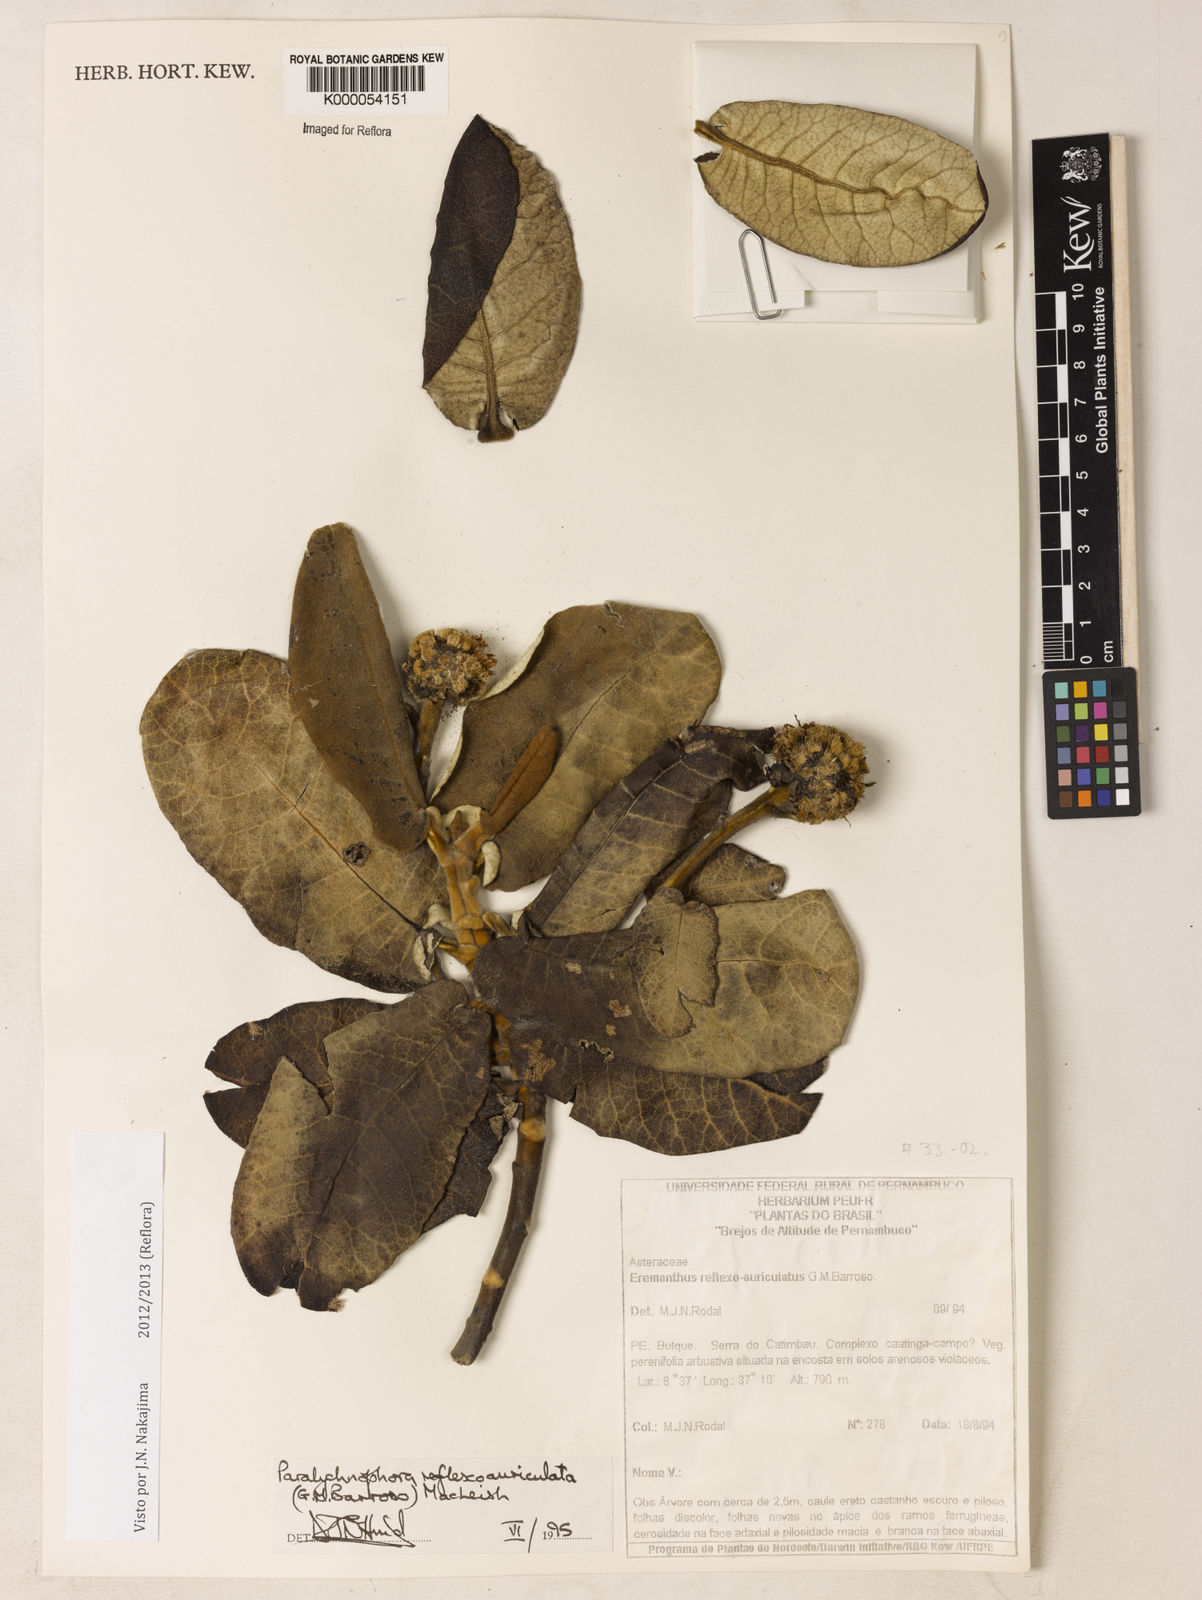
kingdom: Plantae
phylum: Tracheophyta
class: Magnoliopsida
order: Asterales
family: Asteraceae
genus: Paralychnophora
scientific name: Paralychnophora reflexoauriculata
